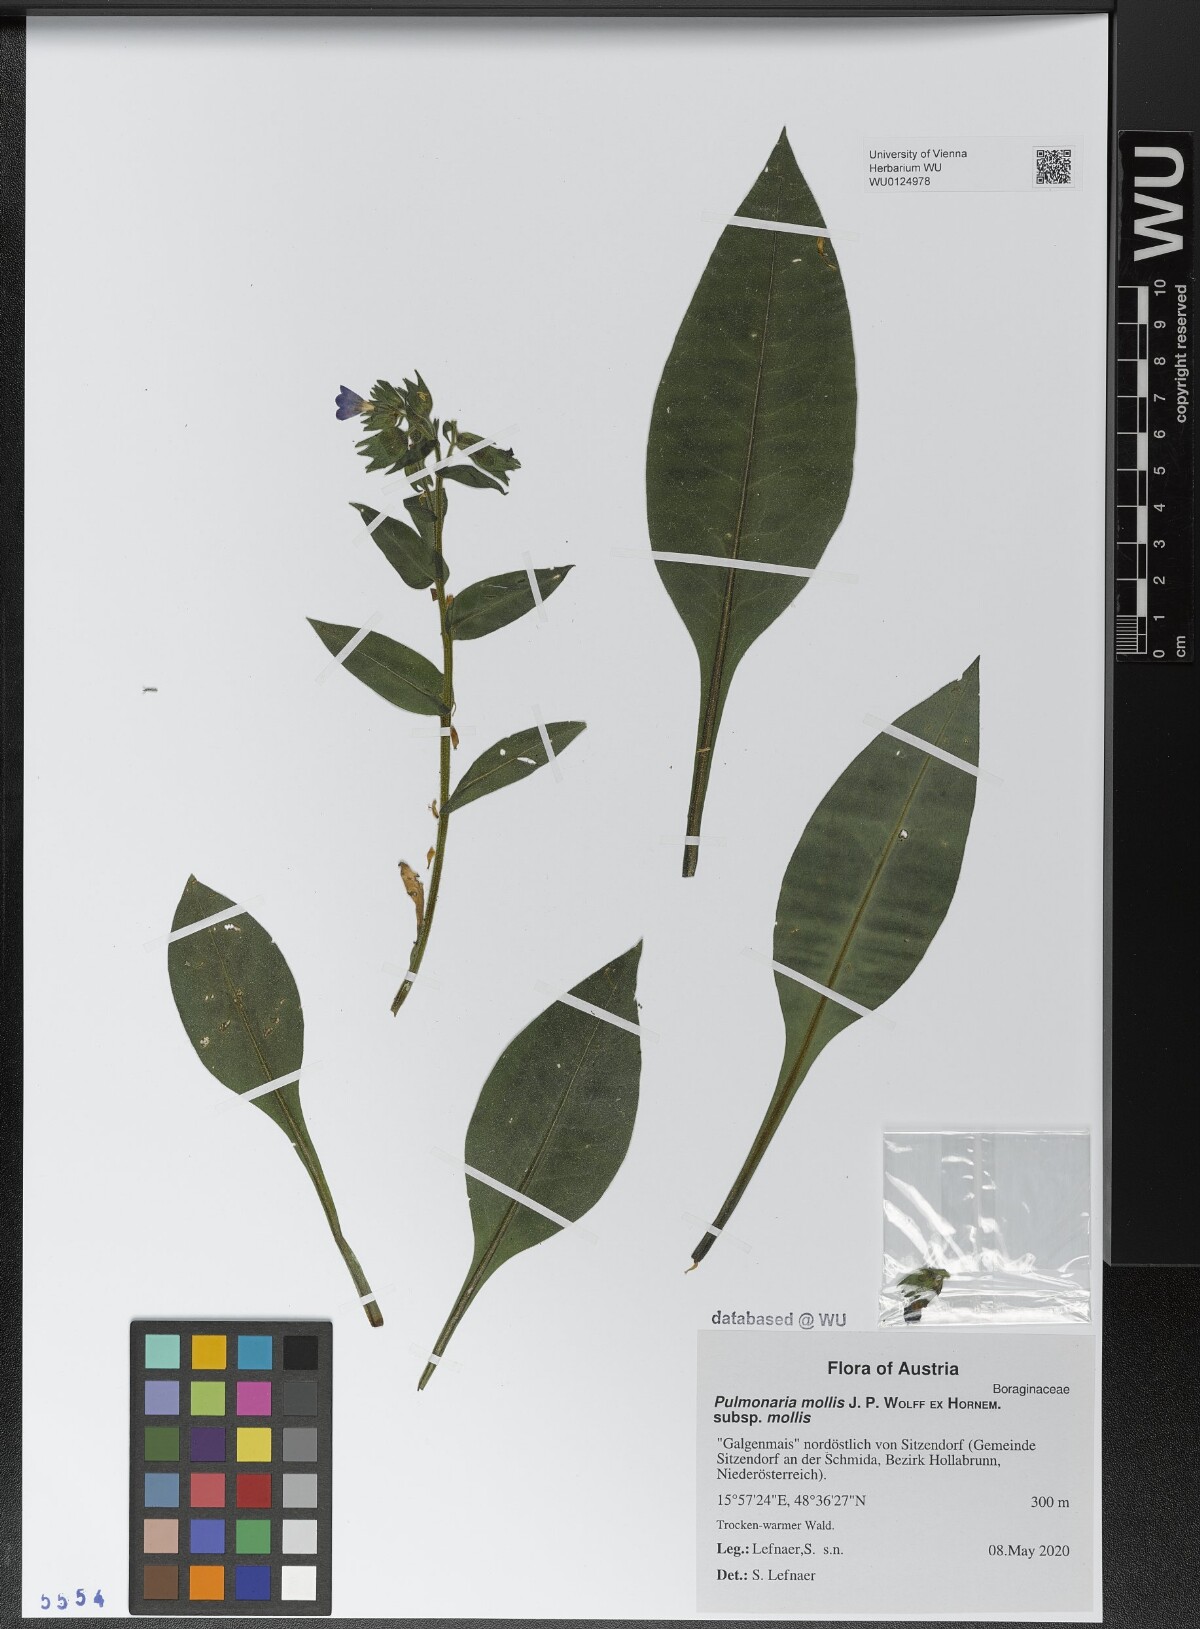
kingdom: Plantae
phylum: Tracheophyta
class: Magnoliopsida
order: Boraginales
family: Boraginaceae
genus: Pulmonaria
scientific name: Pulmonaria mollis
